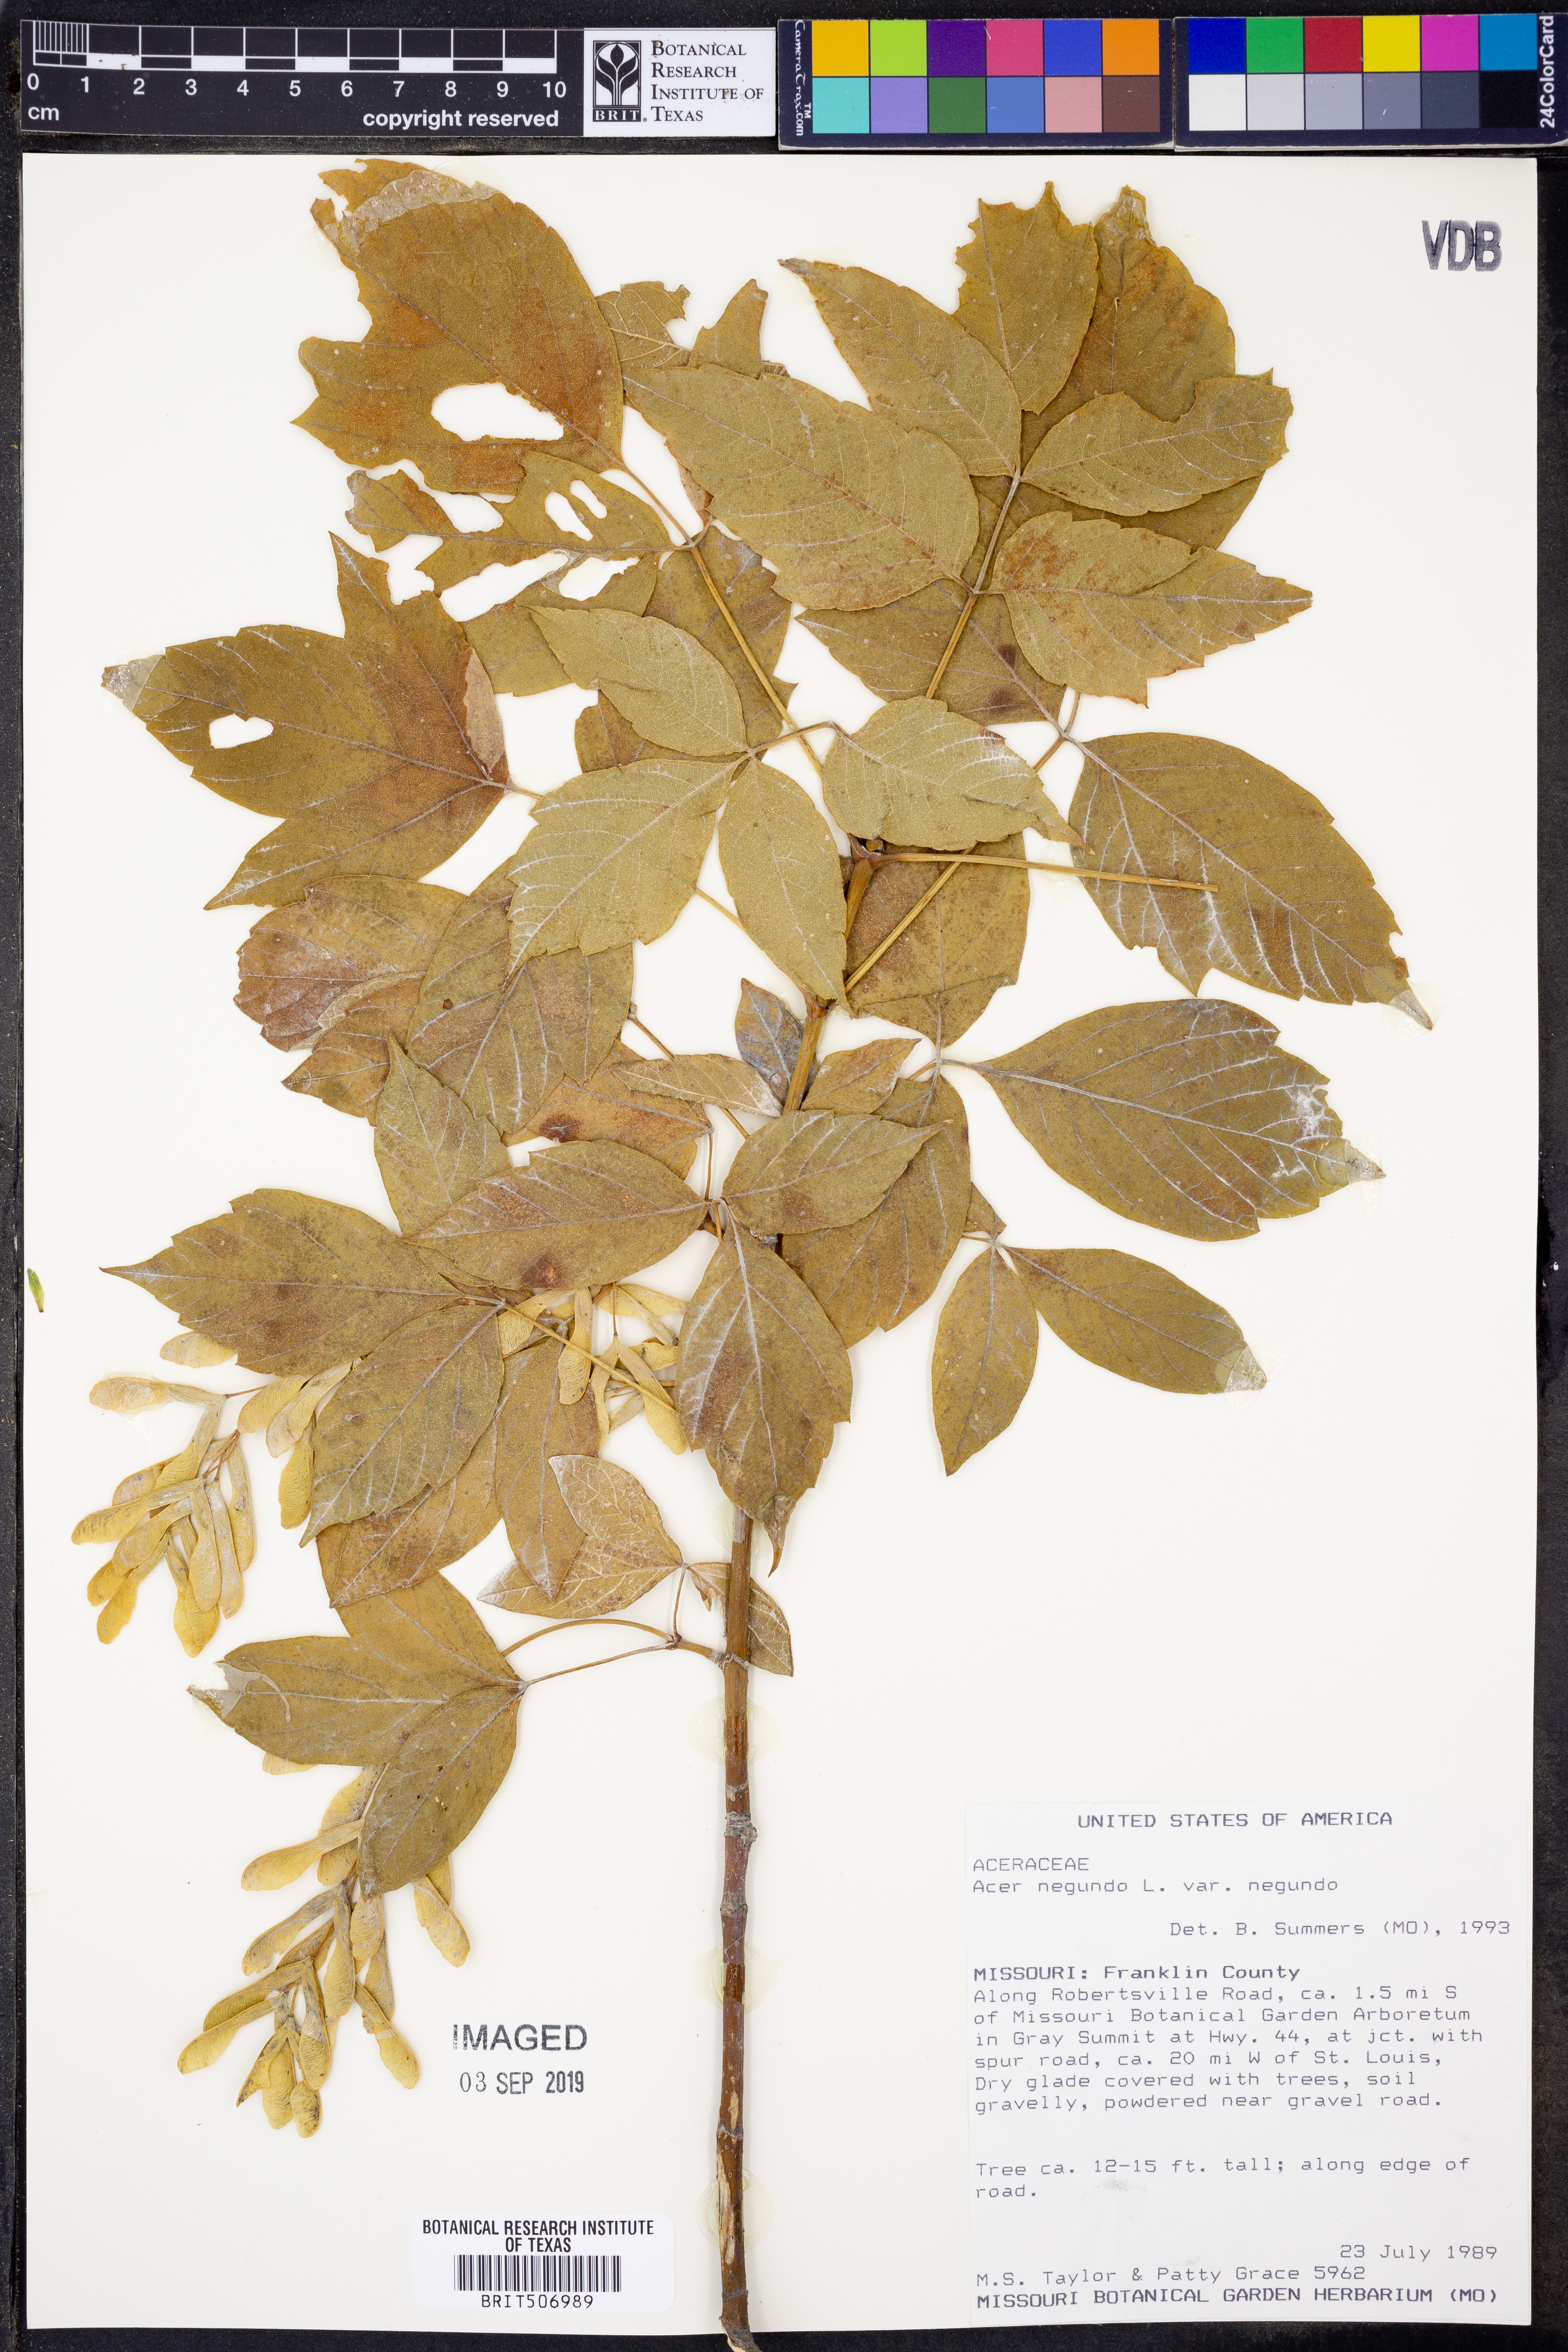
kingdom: Plantae
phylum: Tracheophyta
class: Magnoliopsida
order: Sapindales
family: Sapindaceae
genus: Acer
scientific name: Acer negundo
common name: Ashleaf maple
